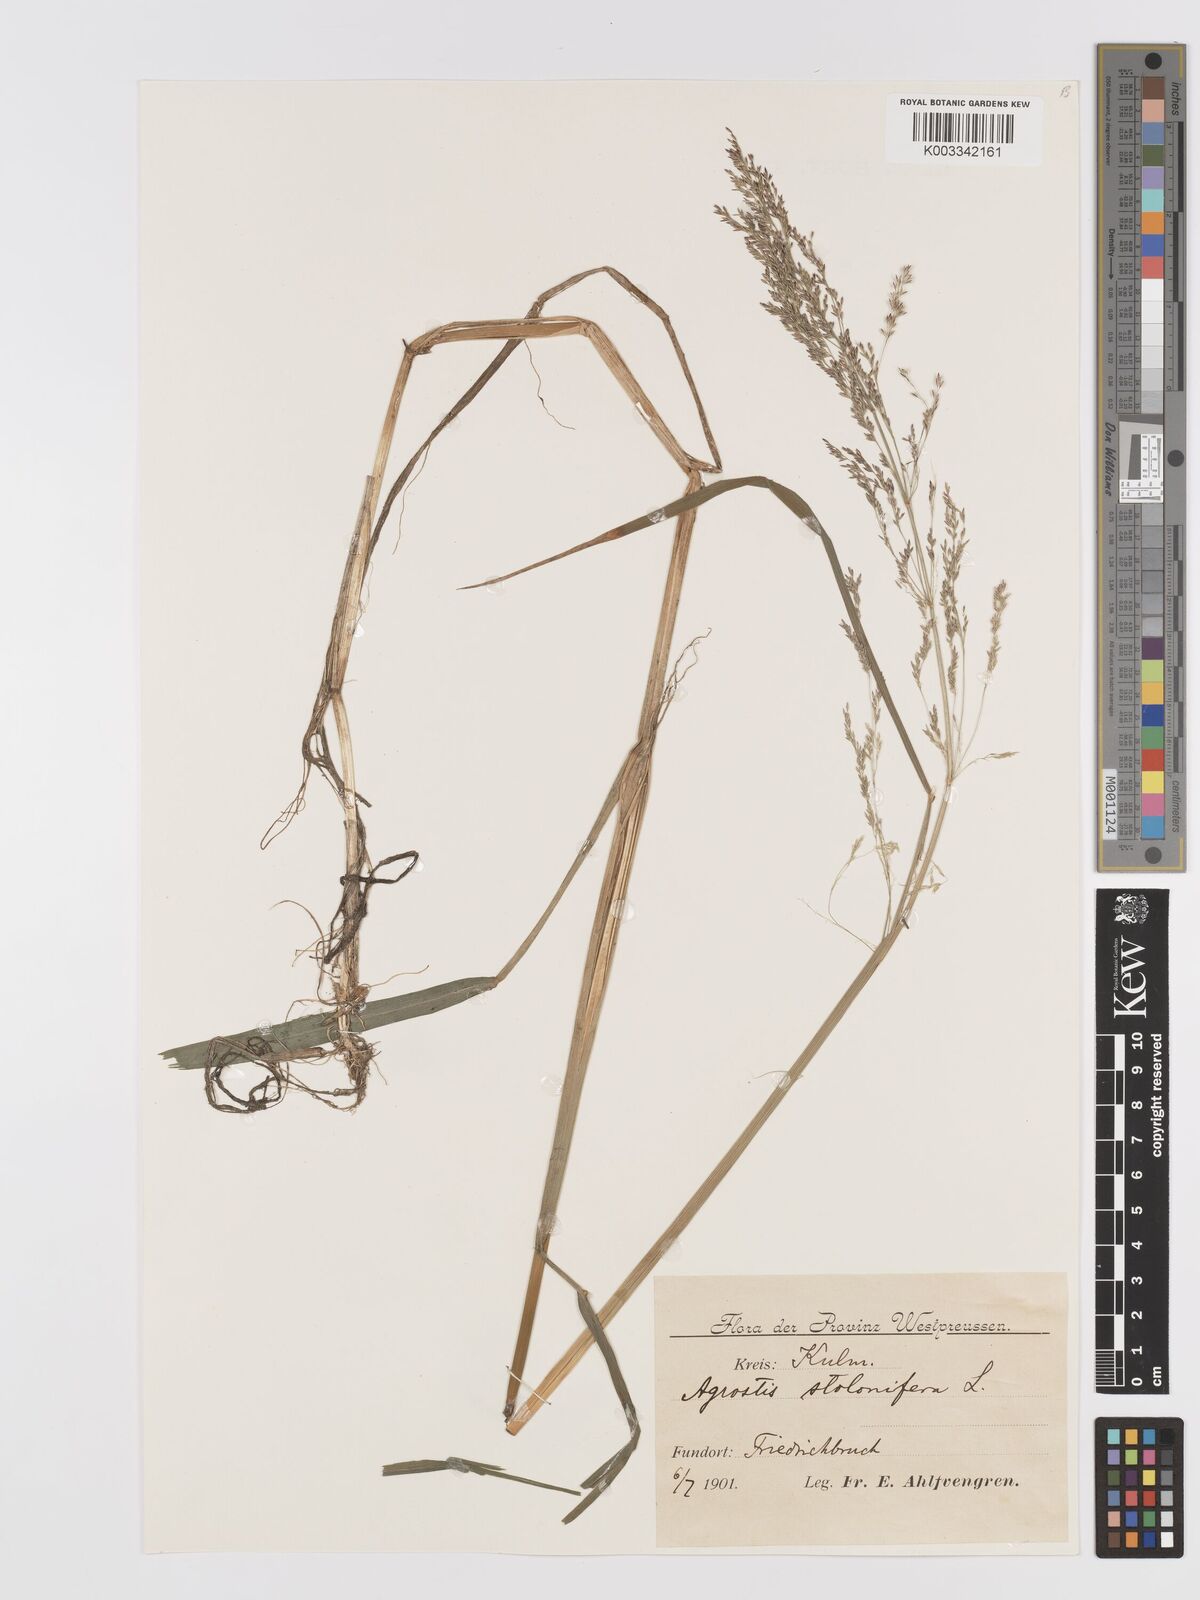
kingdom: Plantae
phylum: Tracheophyta
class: Liliopsida
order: Poales
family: Poaceae
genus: Agrostis
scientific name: Agrostis stolonifera
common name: Creeping bentgrass
